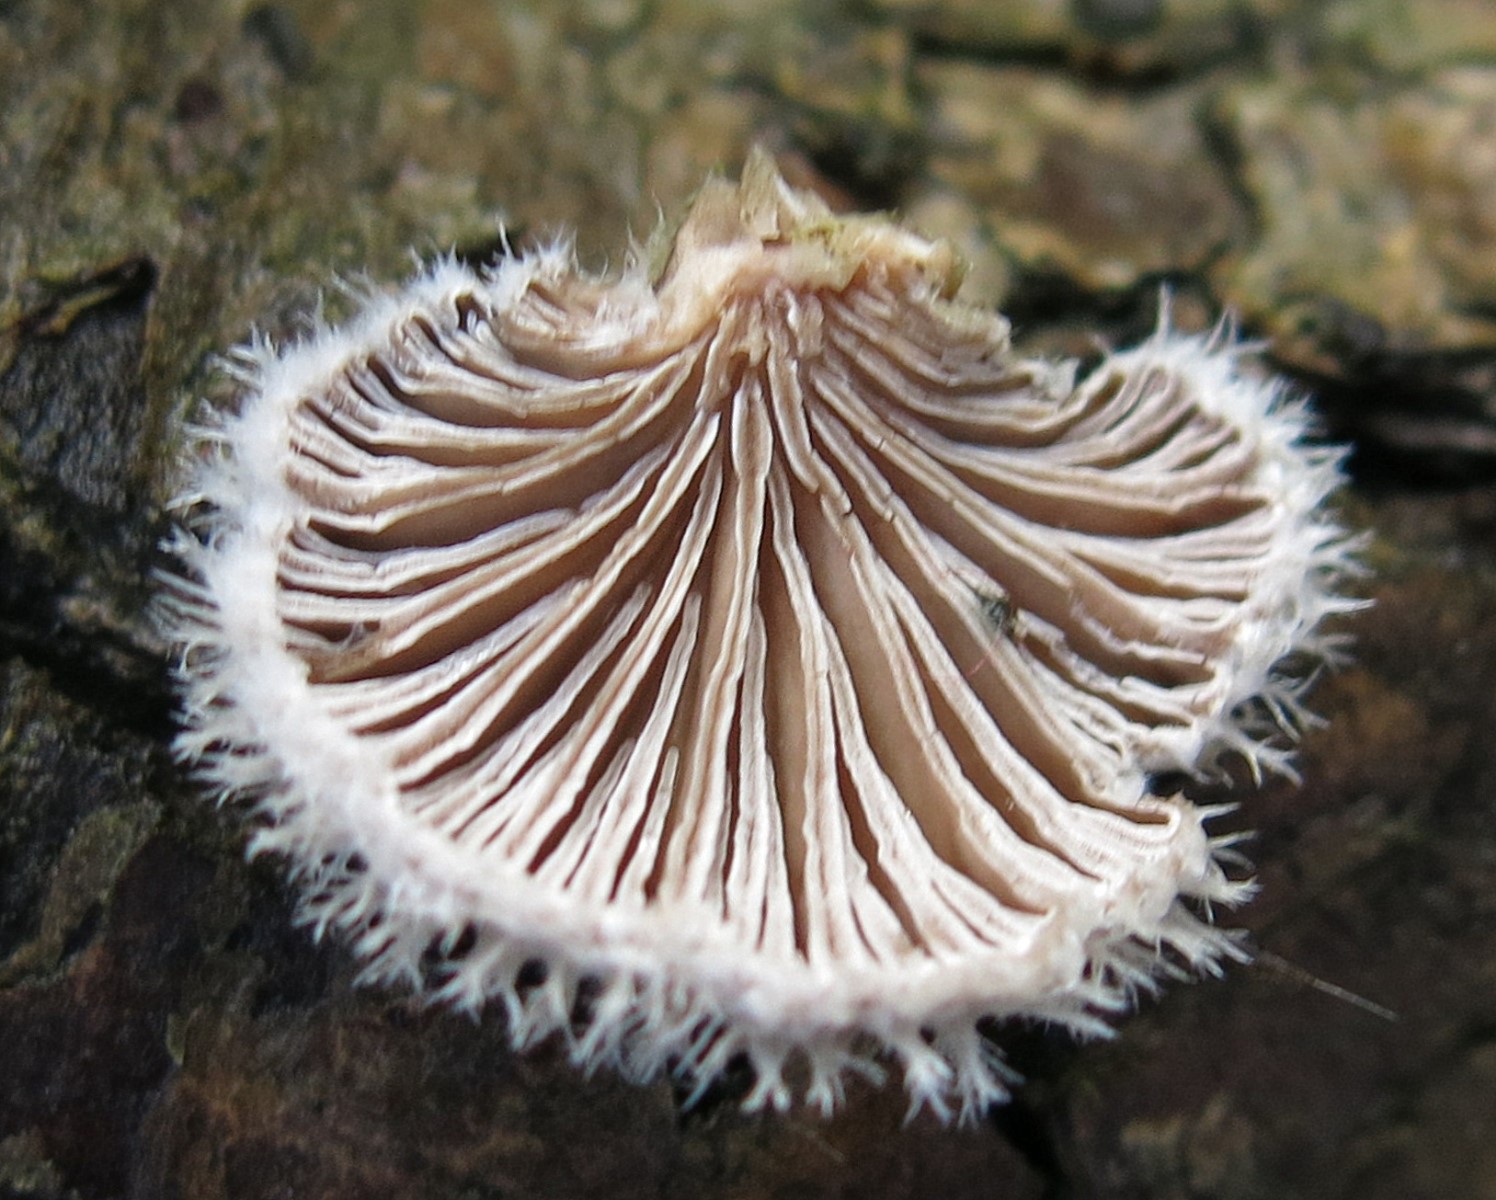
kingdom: Fungi
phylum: Basidiomycota
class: Agaricomycetes
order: Agaricales
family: Schizophyllaceae
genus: Schizophyllum
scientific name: Schizophyllum commune
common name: kløvblad
